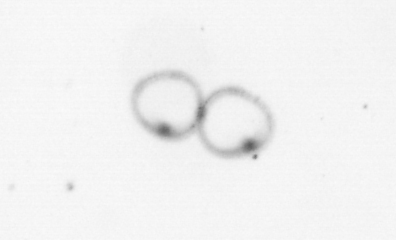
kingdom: Chromista
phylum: Myzozoa
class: Dinophyceae
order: Noctilucales
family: Noctilucaceae
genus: Noctiluca
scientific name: Noctiluca scintillans
